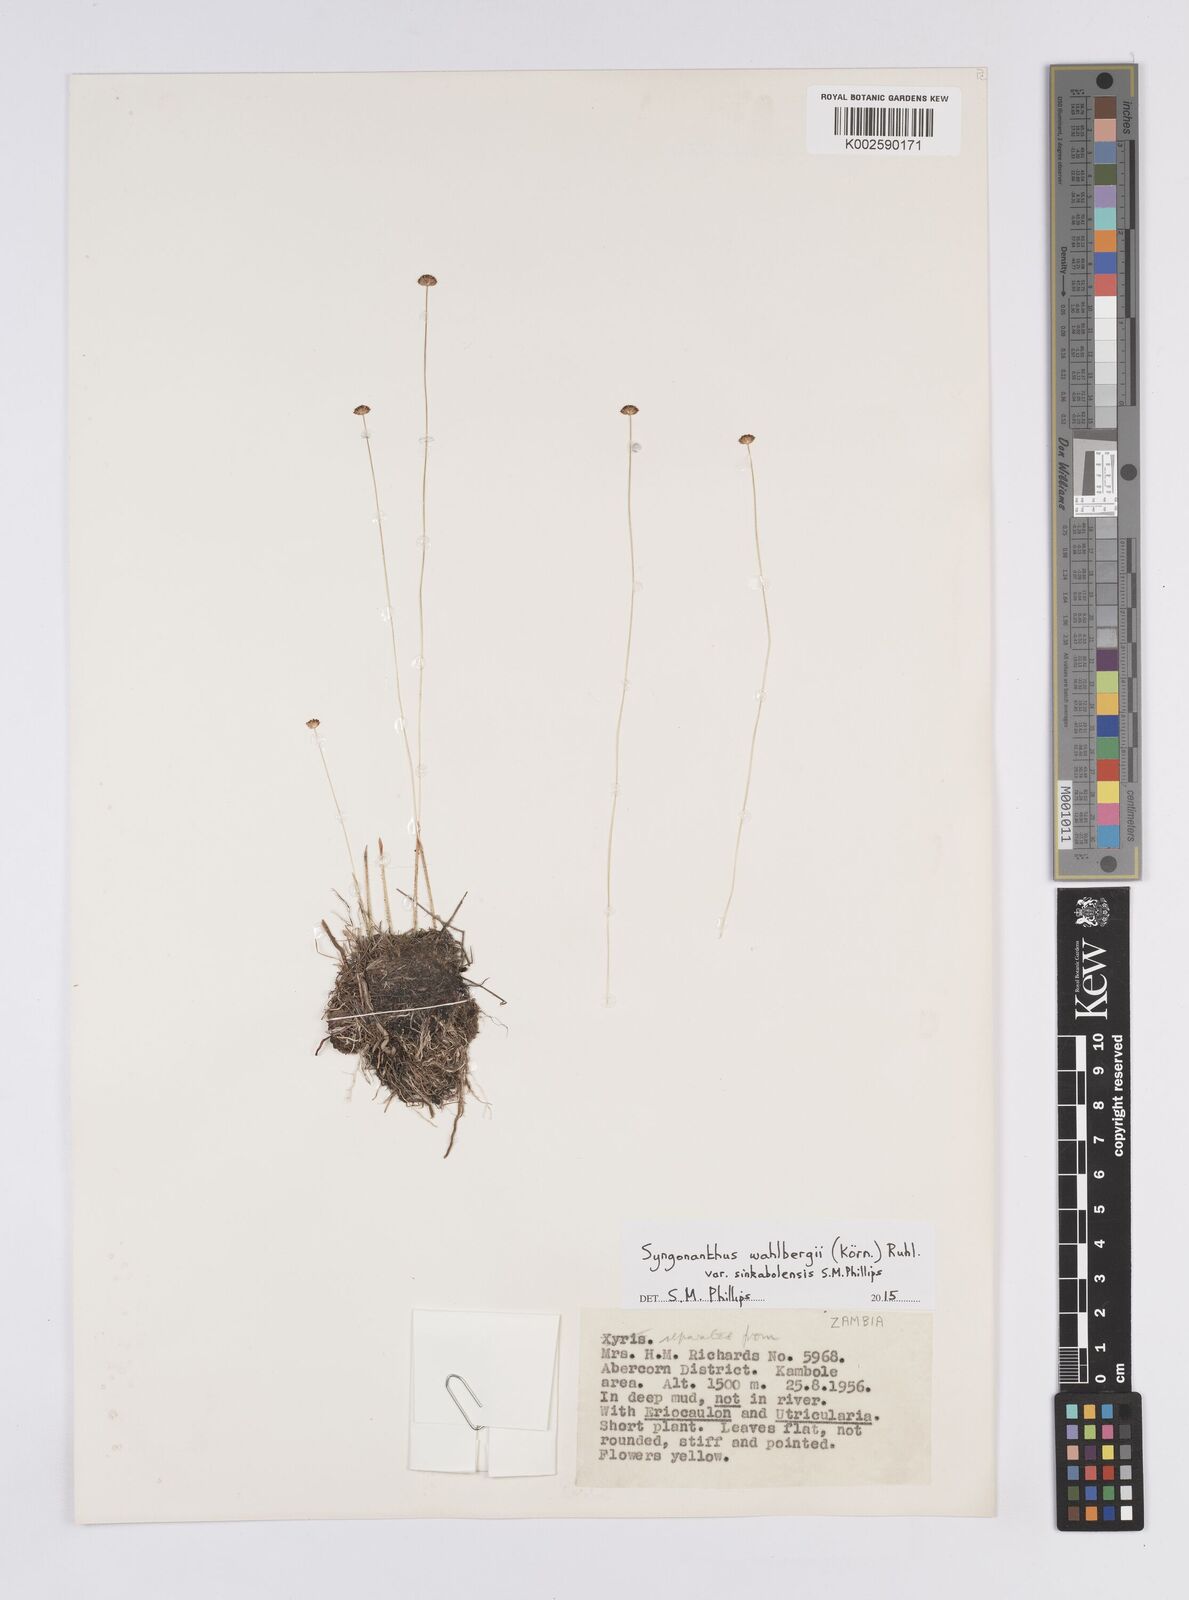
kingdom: Plantae
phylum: Tracheophyta
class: Liliopsida
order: Poales
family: Eriocaulaceae
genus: Syngonanthus
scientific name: Syngonanthus wahlbergii
